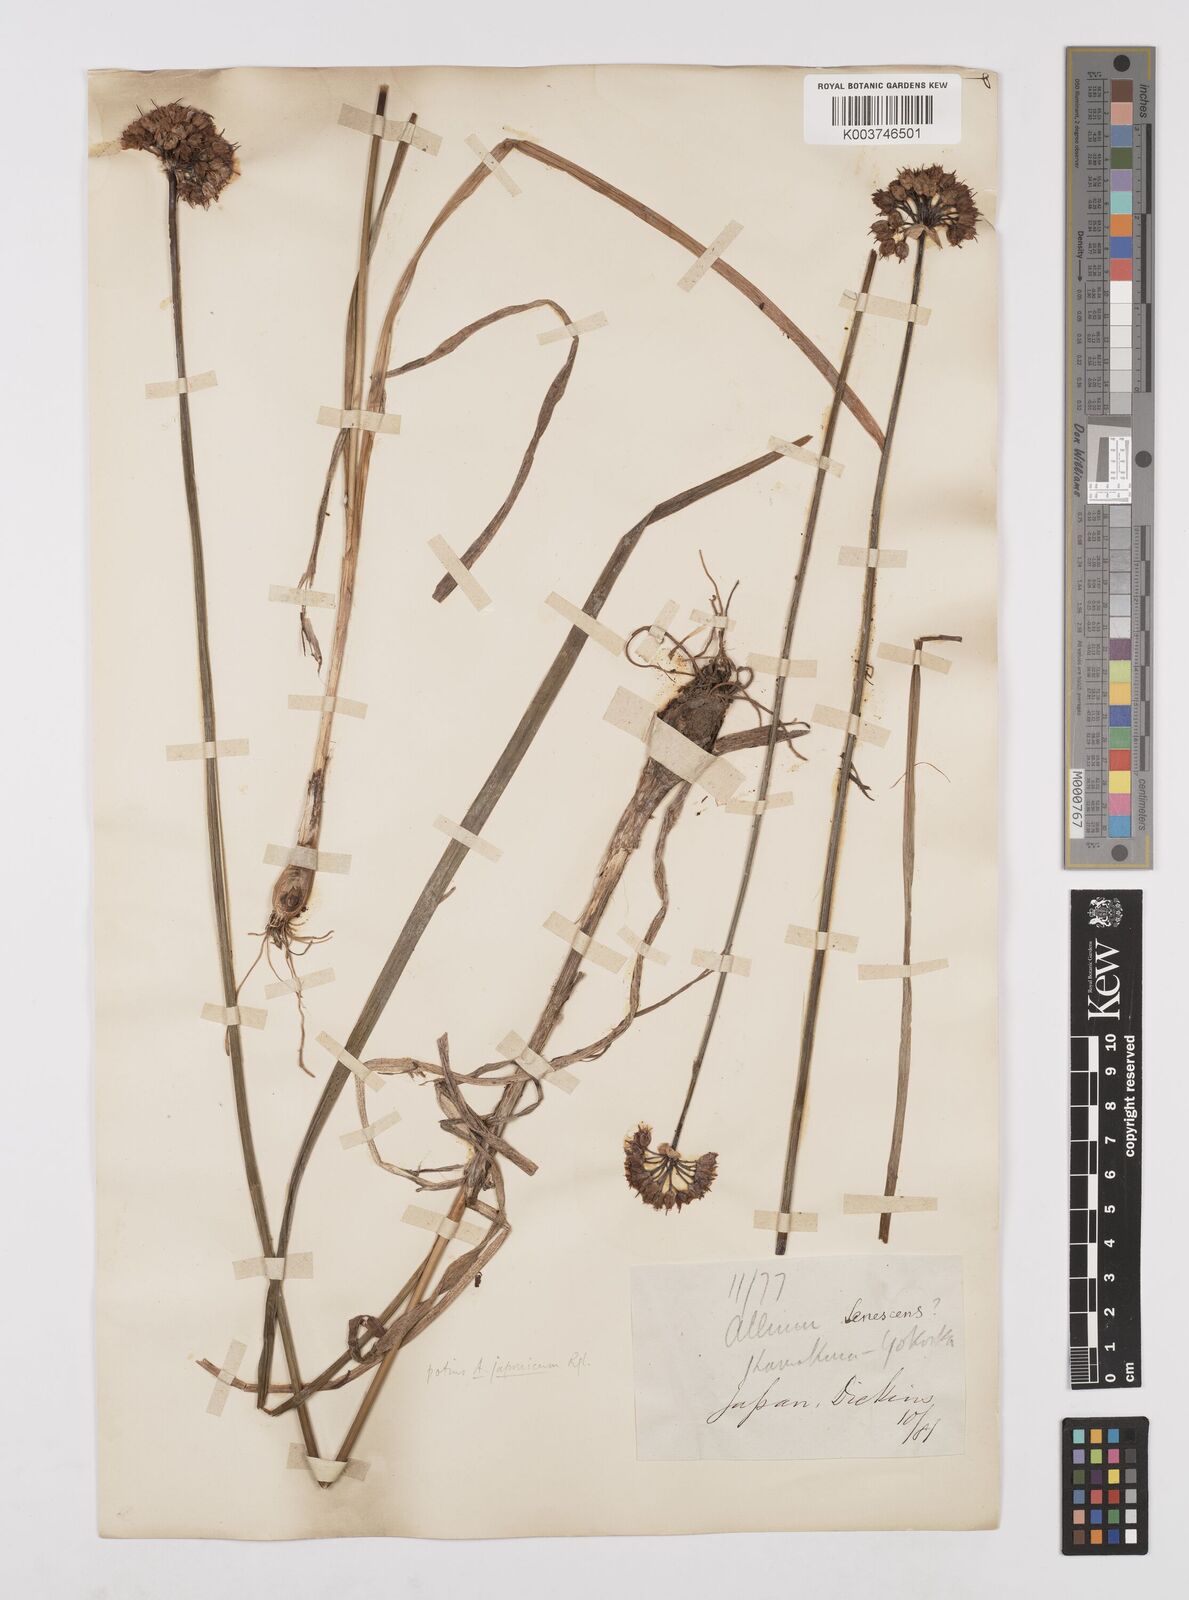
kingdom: Plantae
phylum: Tracheophyta
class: Liliopsida
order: Asparagales
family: Amaryllidaceae
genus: Allium
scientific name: Allium sacculiferum
